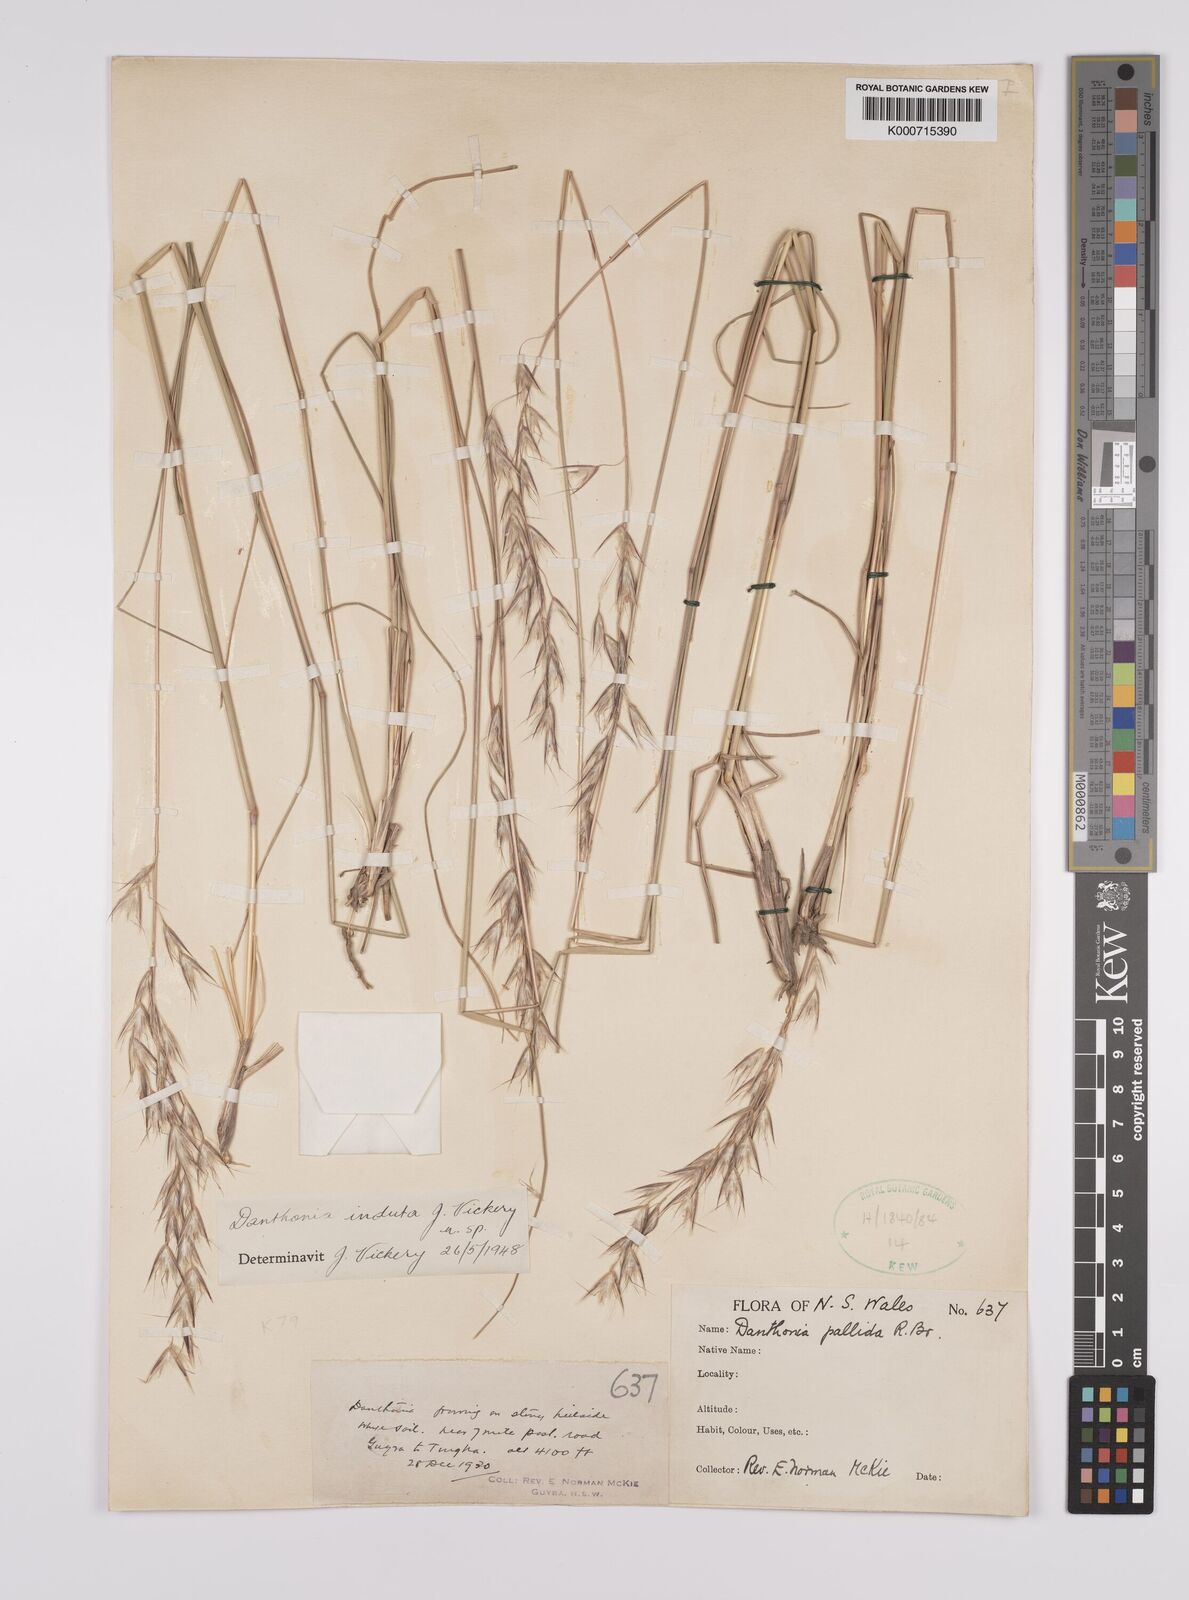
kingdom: Plantae
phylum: Tracheophyta
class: Liliopsida
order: Poales
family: Poaceae
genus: Rytidosperma
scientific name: Rytidosperma indutum
